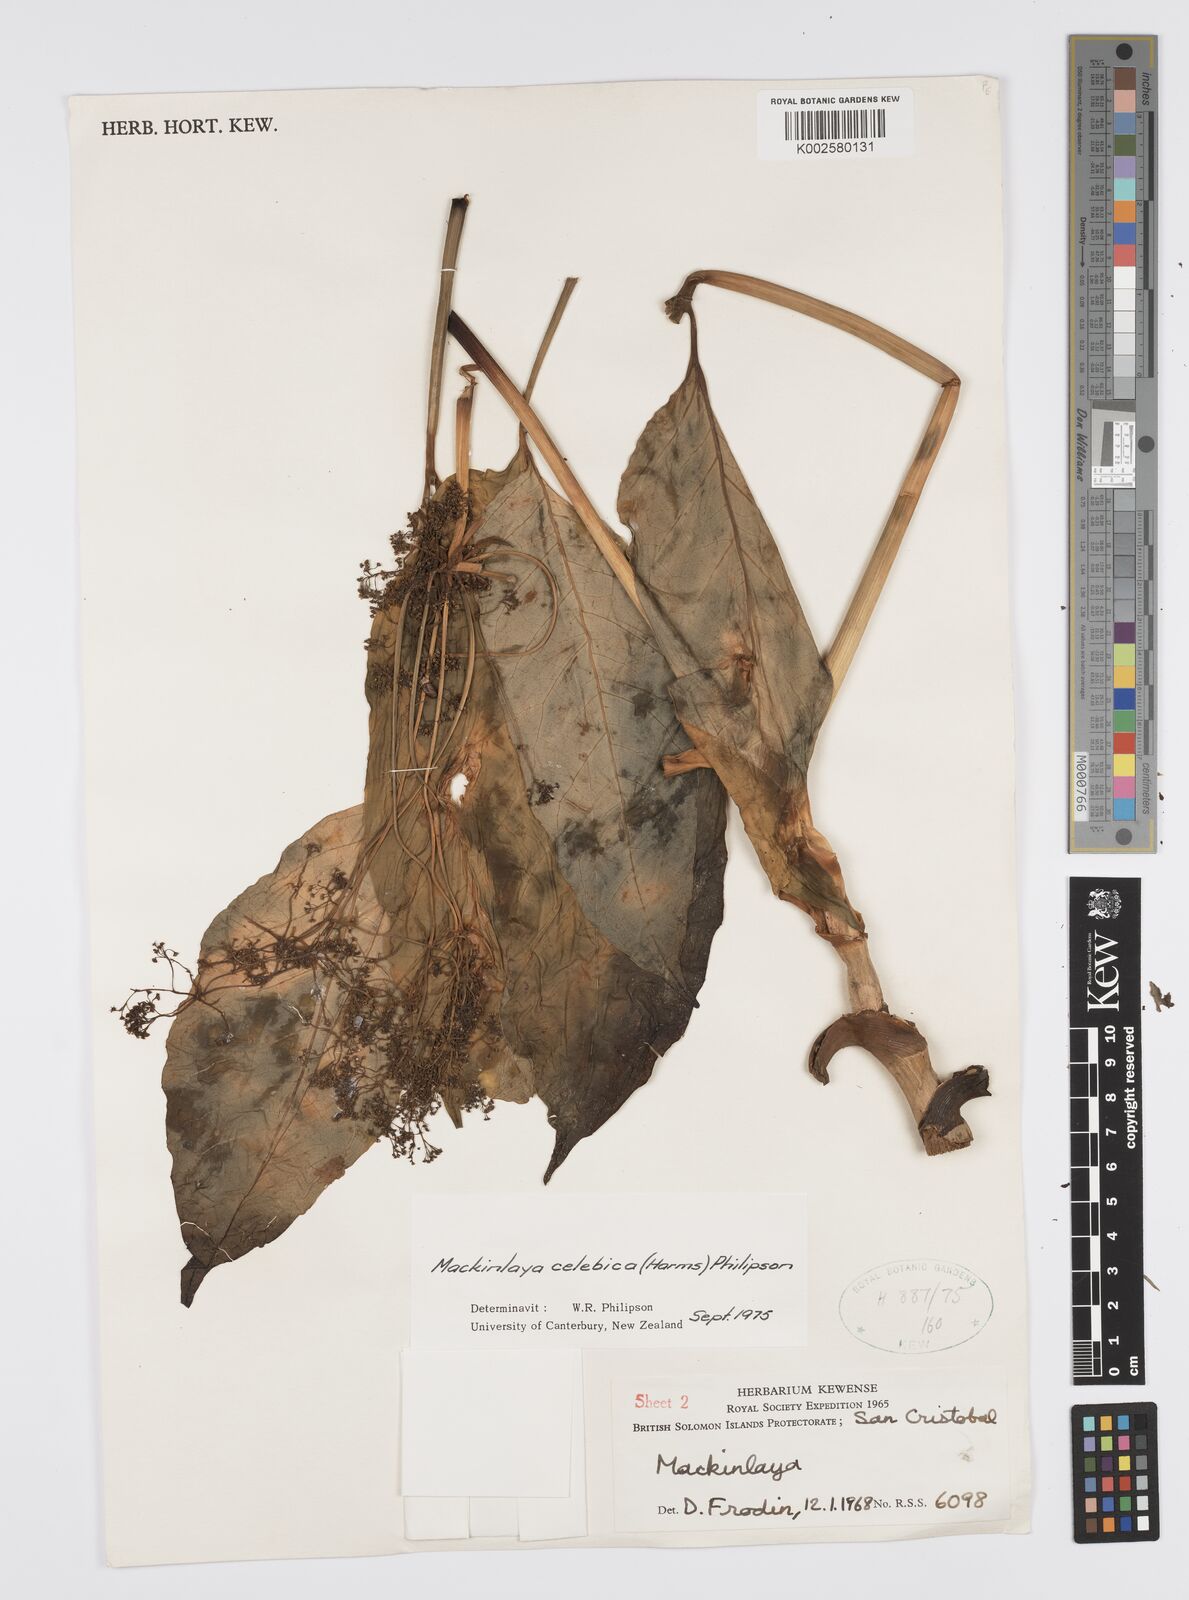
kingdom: Plantae
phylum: Tracheophyta
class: Magnoliopsida
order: Apiales
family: Apiaceae
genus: Mackinlaya
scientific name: Mackinlaya celebica
